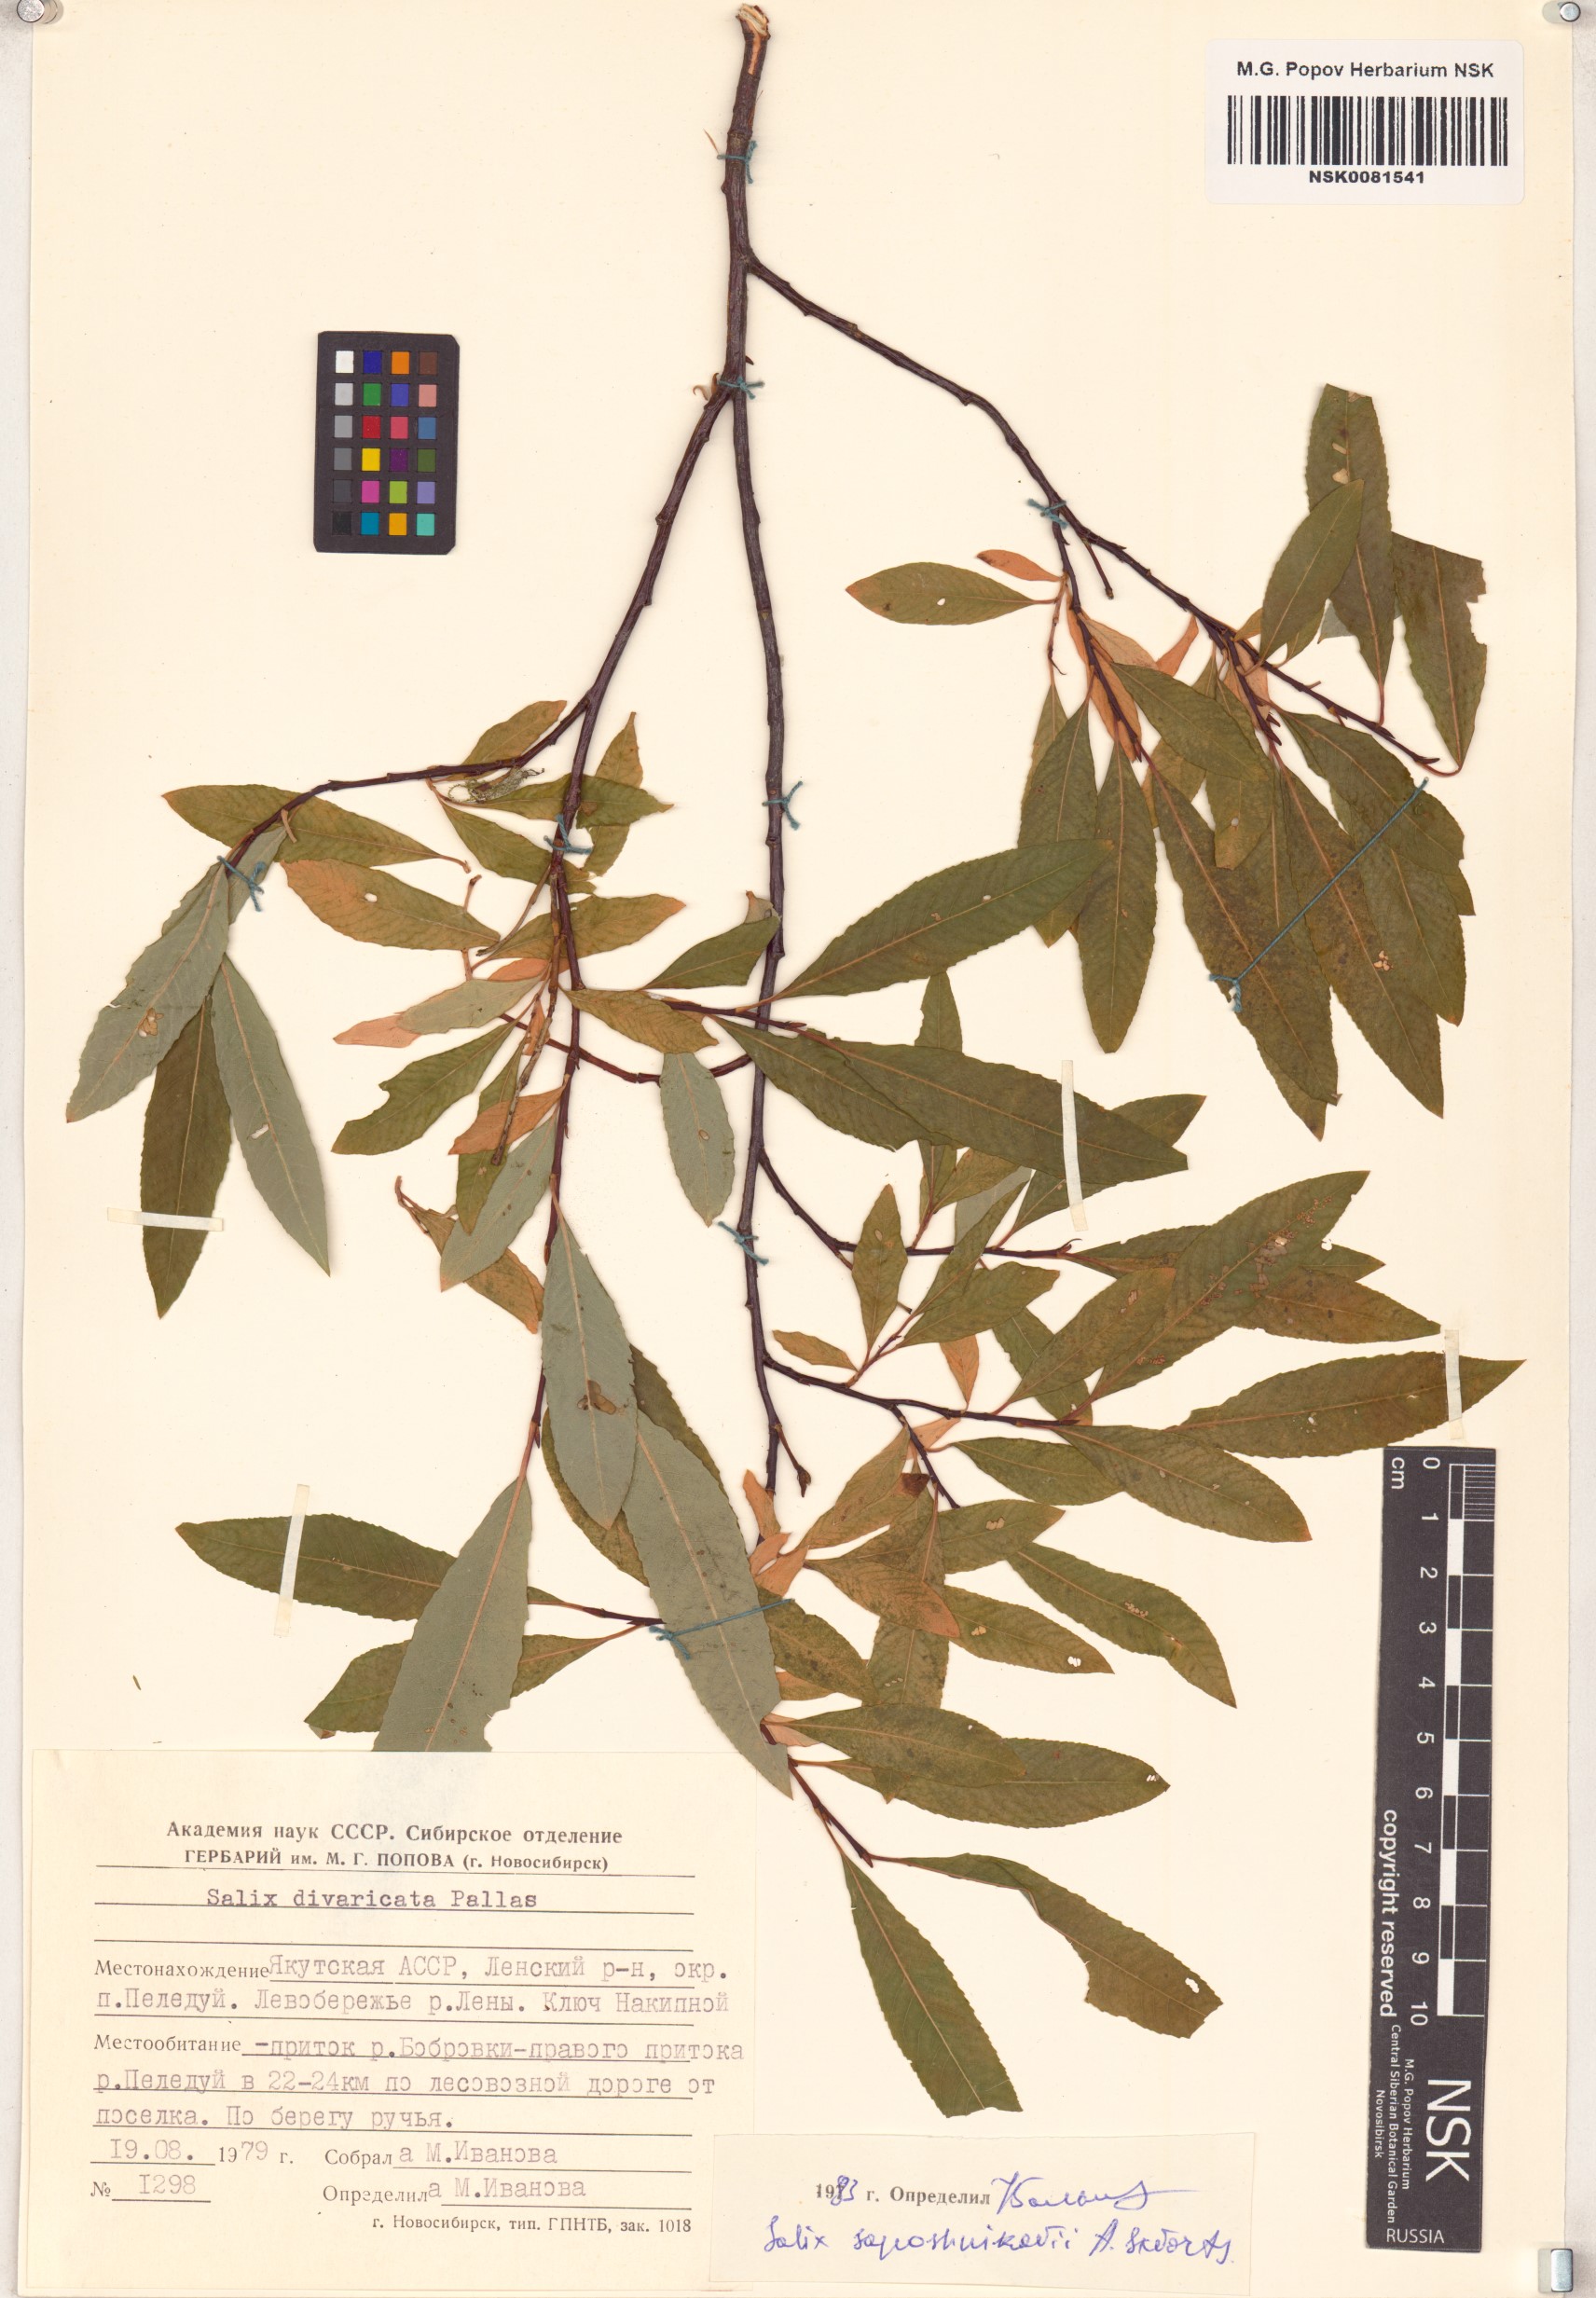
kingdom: Plantae
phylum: Tracheophyta
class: Magnoliopsida
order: Malpighiales
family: Salicaceae
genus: Salix
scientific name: Salix saposhnikovii
